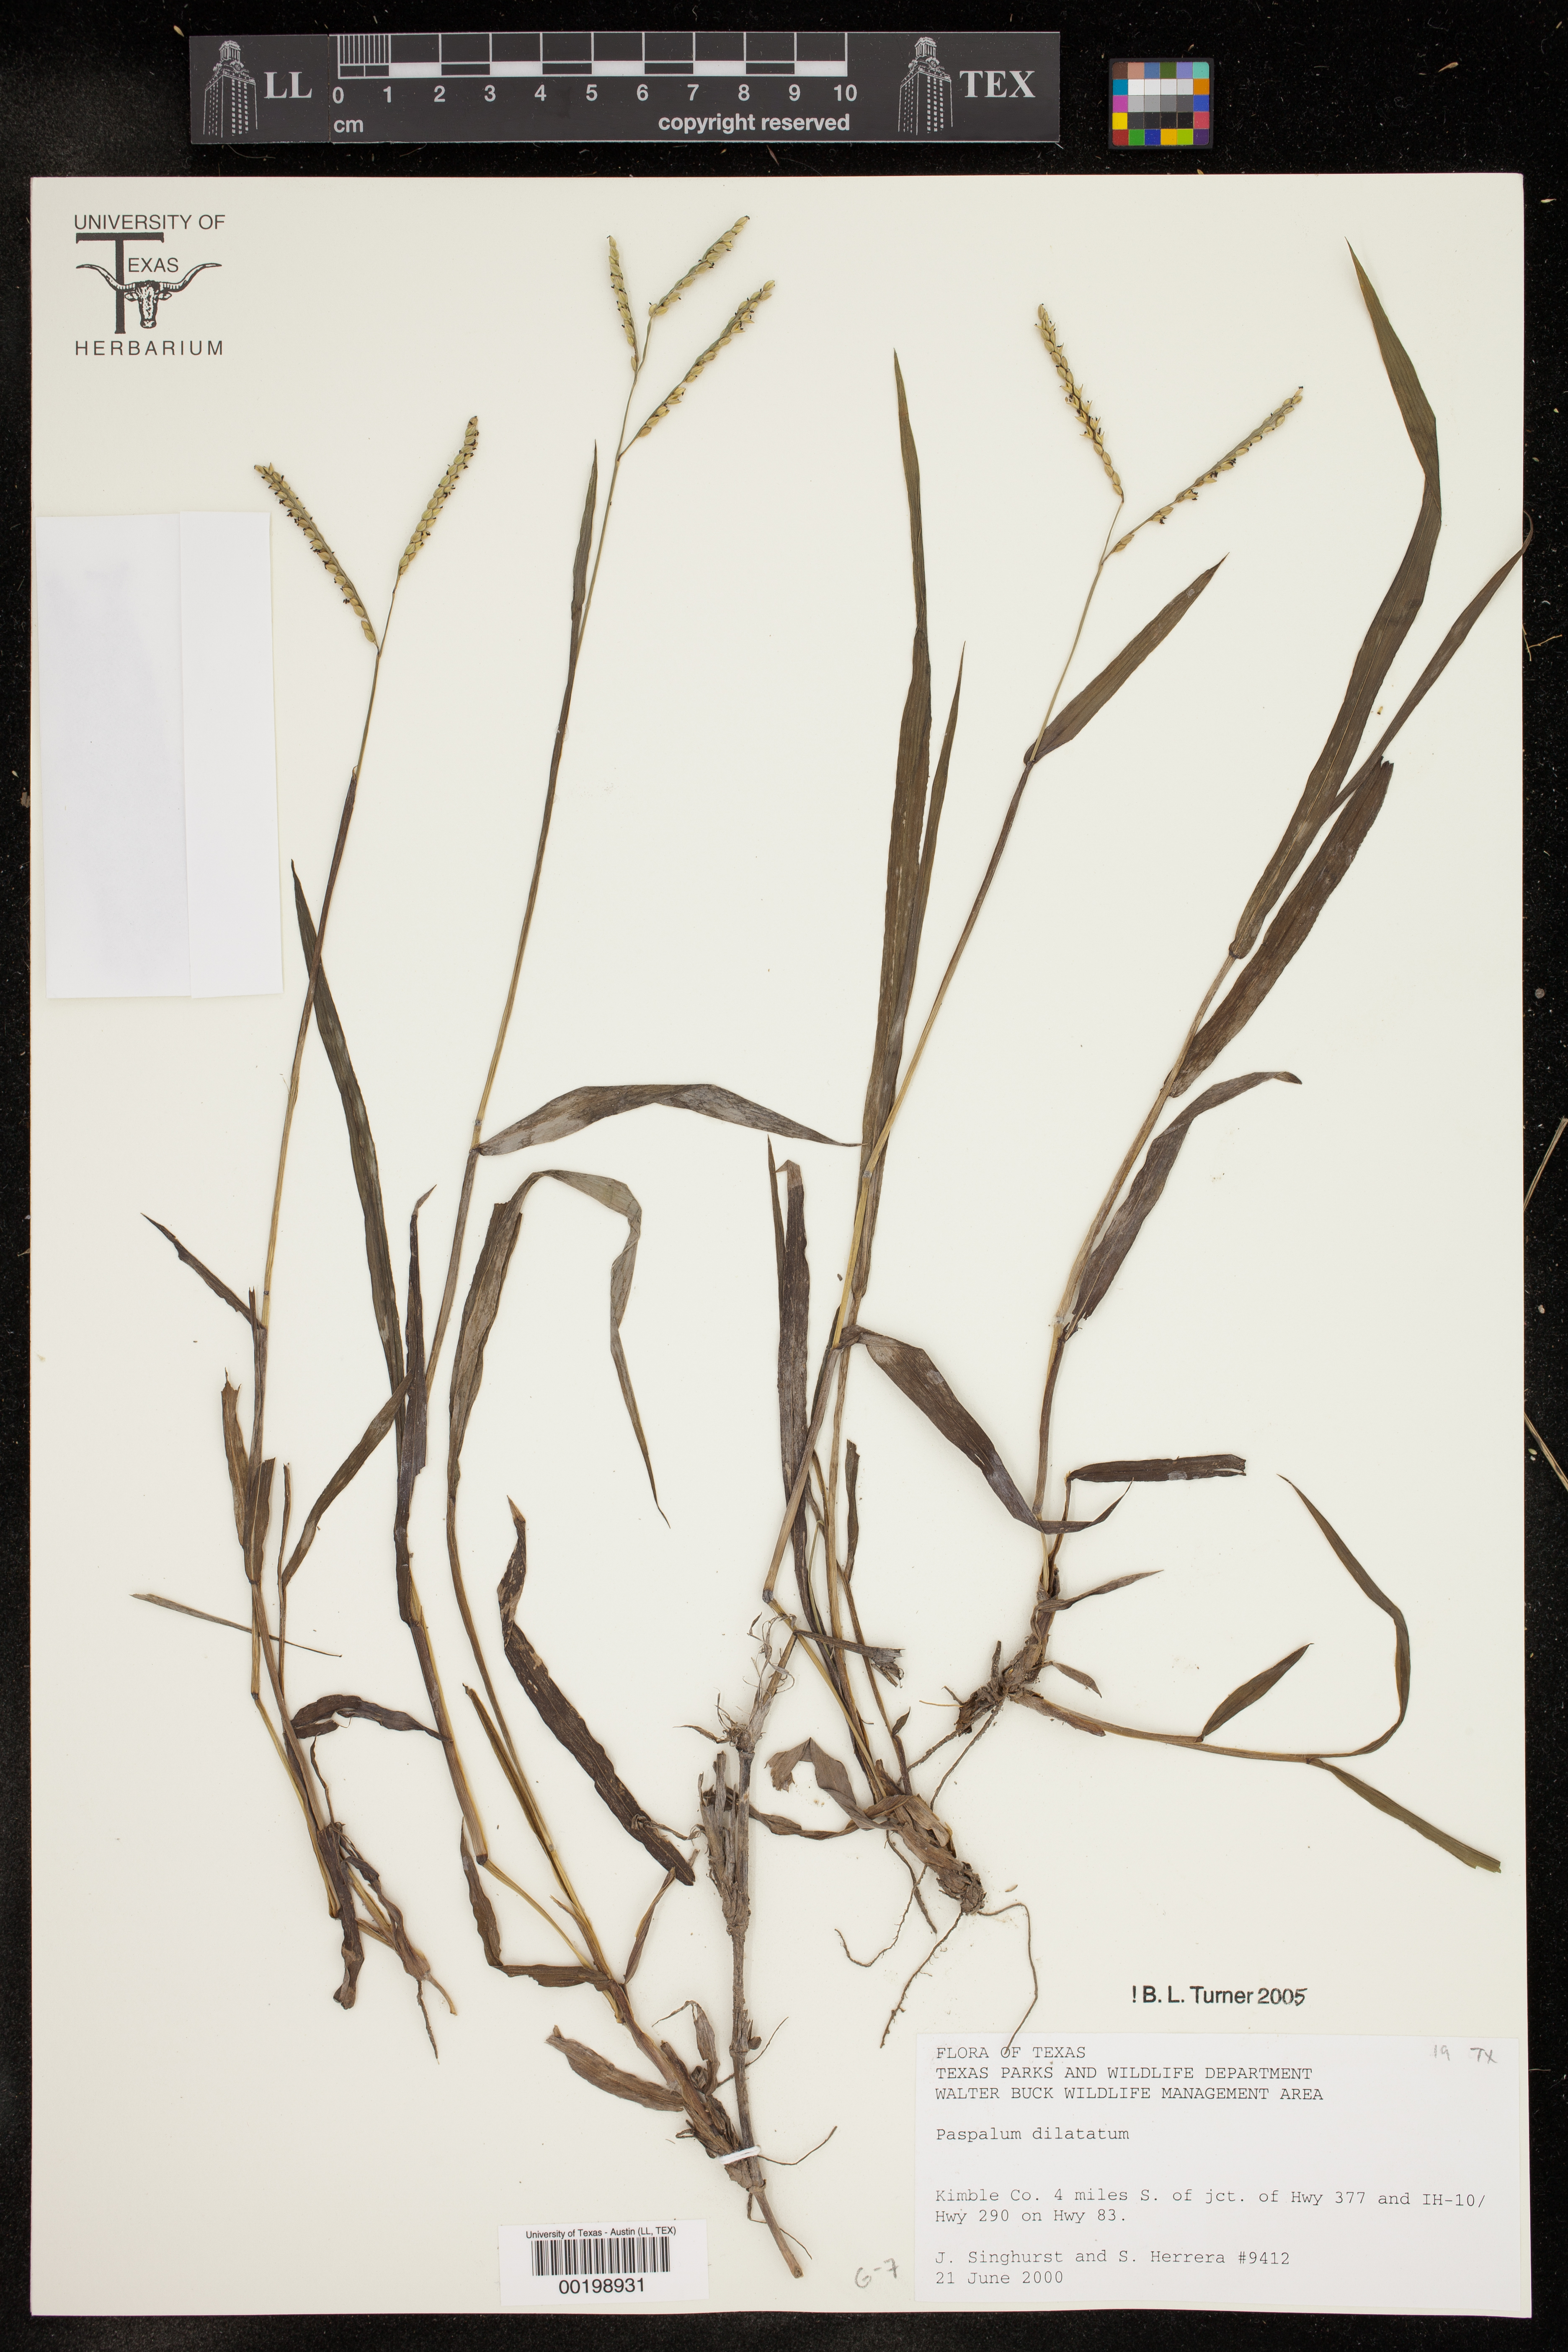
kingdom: Plantae
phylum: Tracheophyta
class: Liliopsida
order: Poales
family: Poaceae
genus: Paspalum
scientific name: Paspalum dilatatum
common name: Dallisgrass
